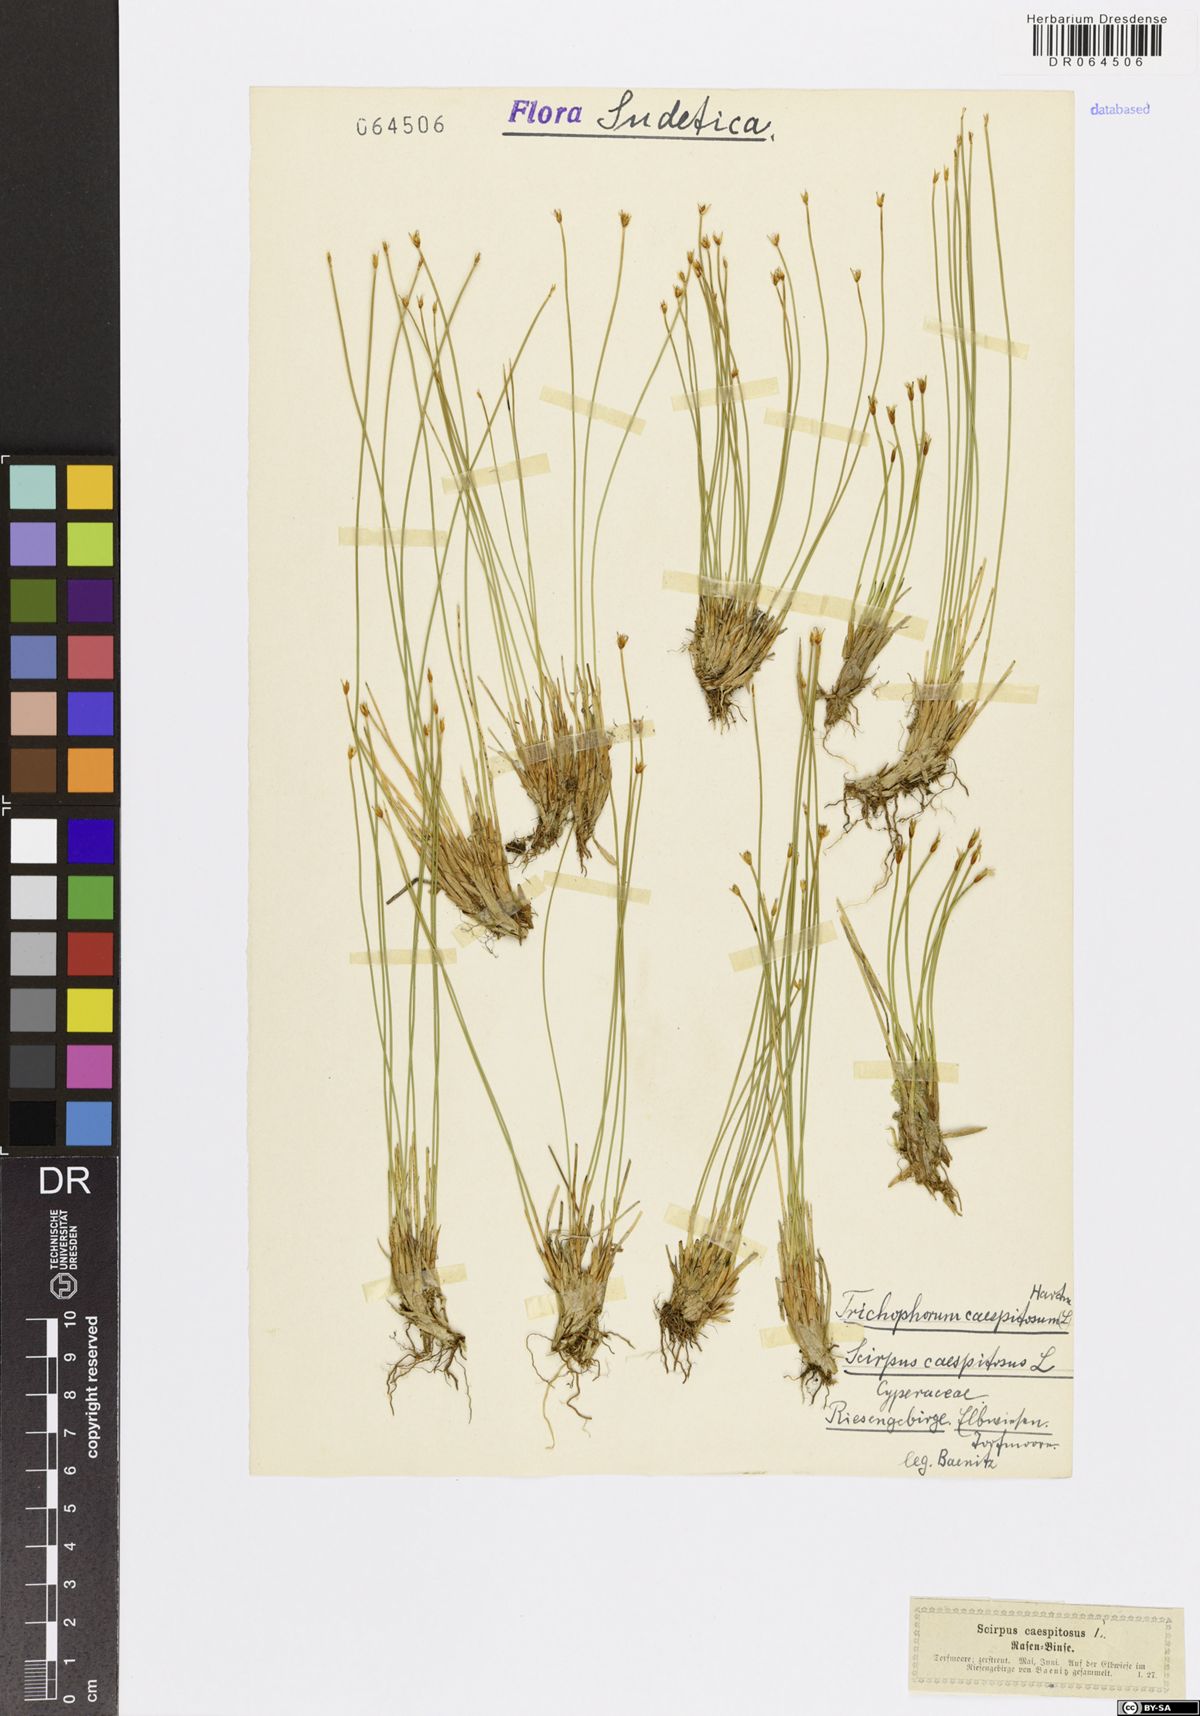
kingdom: Plantae
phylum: Tracheophyta
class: Liliopsida
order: Poales
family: Cyperaceae
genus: Trichophorum
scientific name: Trichophorum cespitosum
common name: Cespitose bulrush
